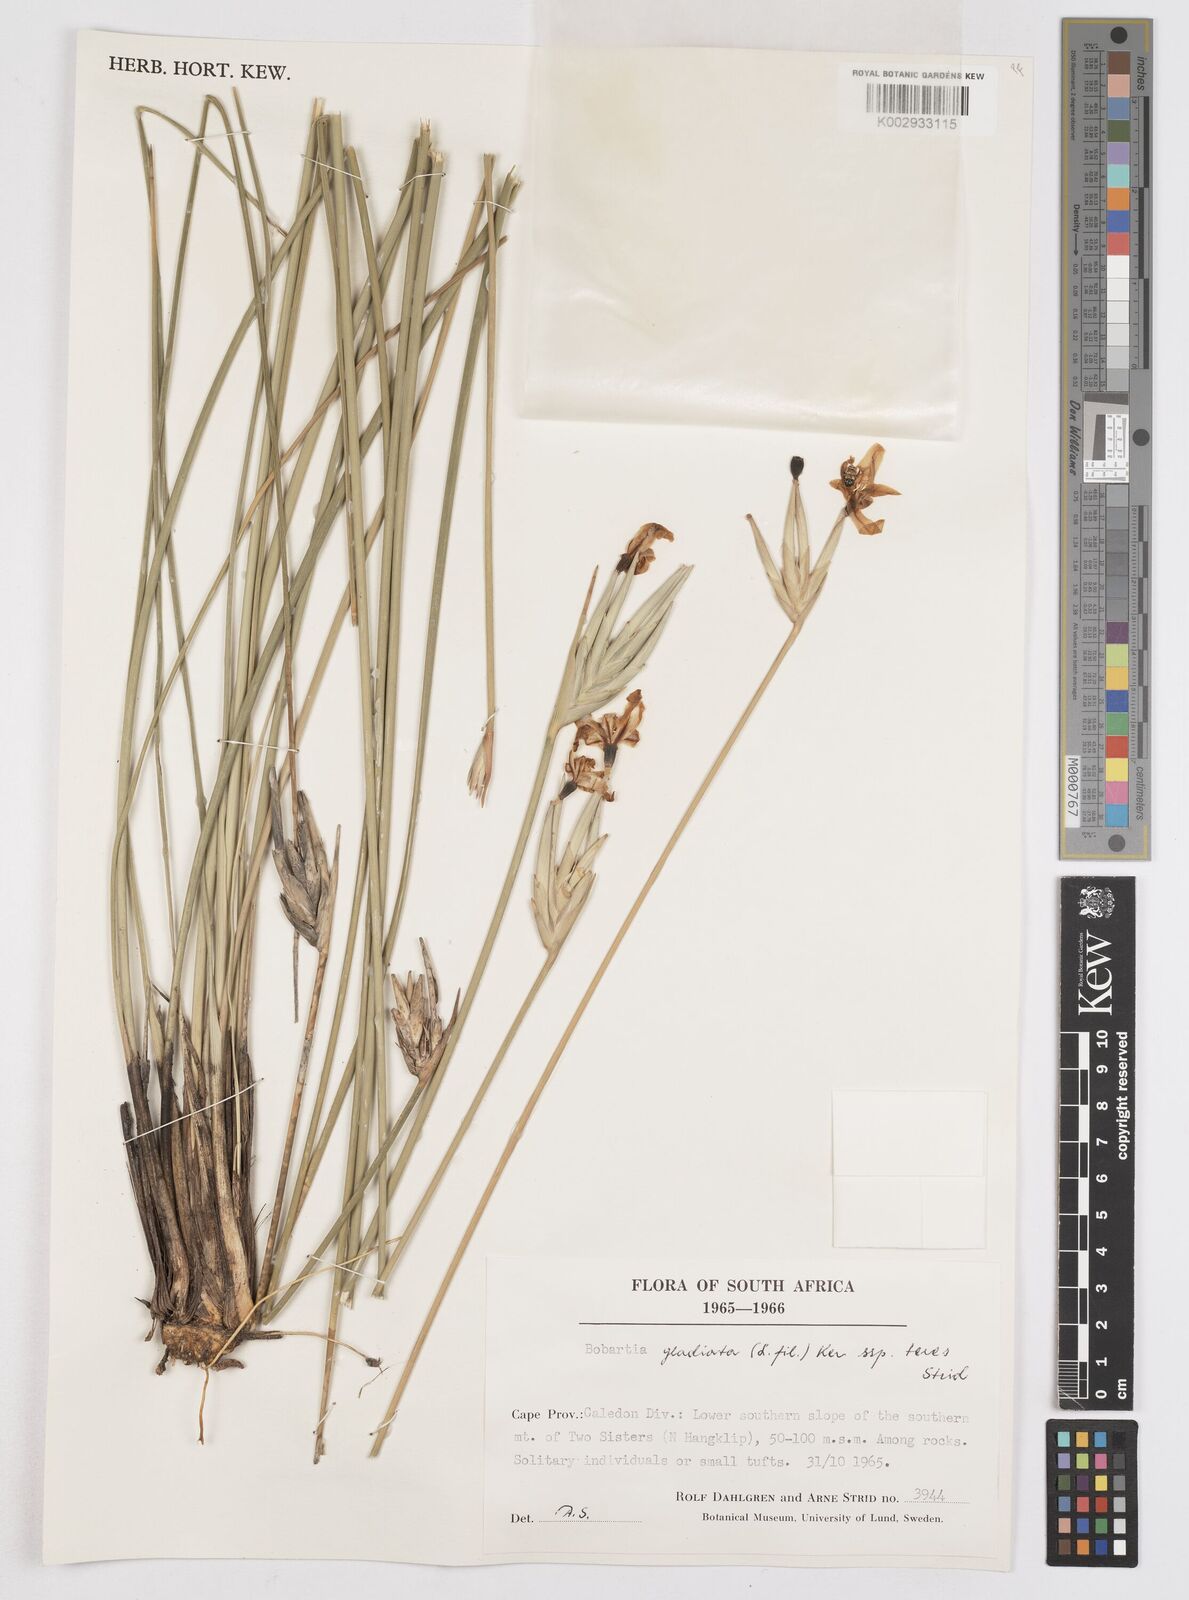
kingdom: Plantae
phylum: Tracheophyta
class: Liliopsida
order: Asparagales
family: Iridaceae
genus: Bobartia
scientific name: Bobartia gladiata
